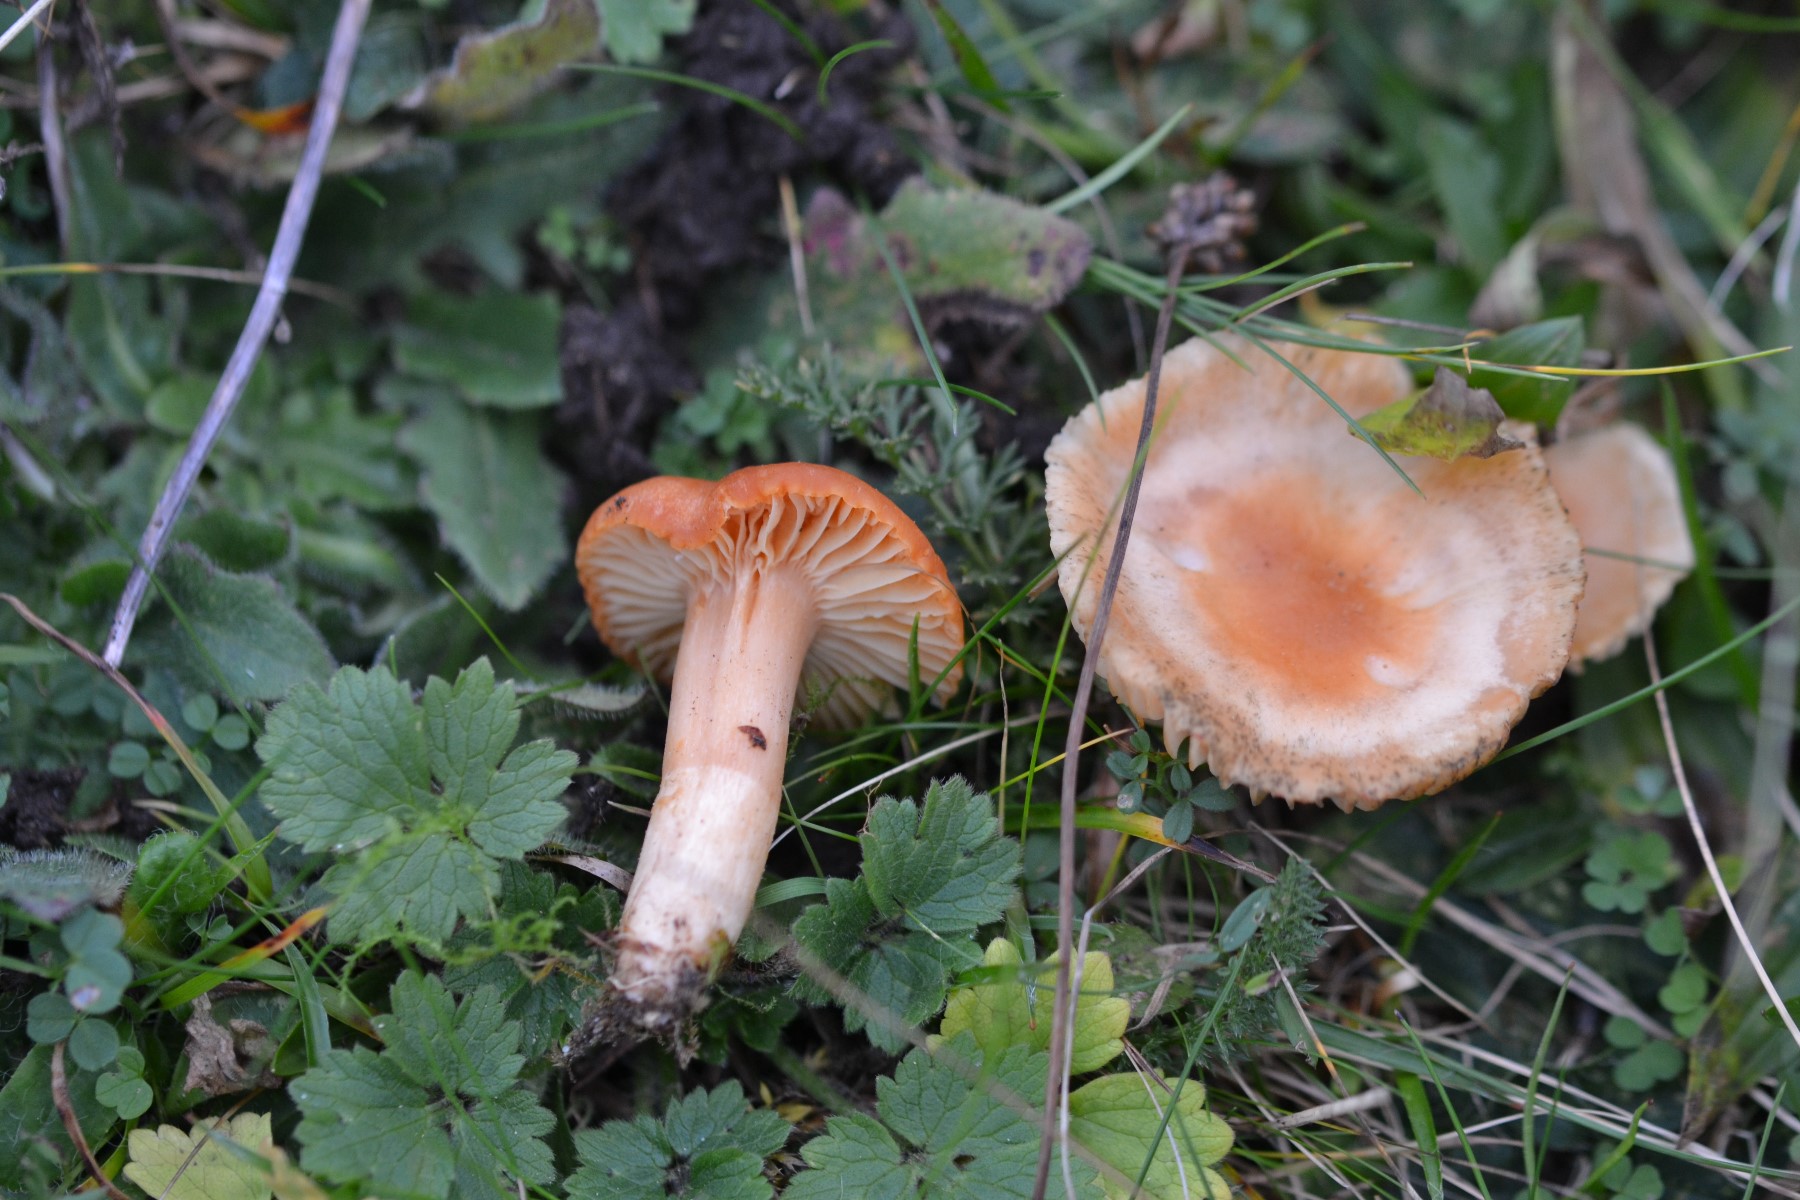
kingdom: Fungi
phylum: Basidiomycota
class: Agaricomycetes
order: Agaricales
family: Hygrophoraceae
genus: Cuphophyllus
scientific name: Cuphophyllus pratensis
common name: eng-vokshat
